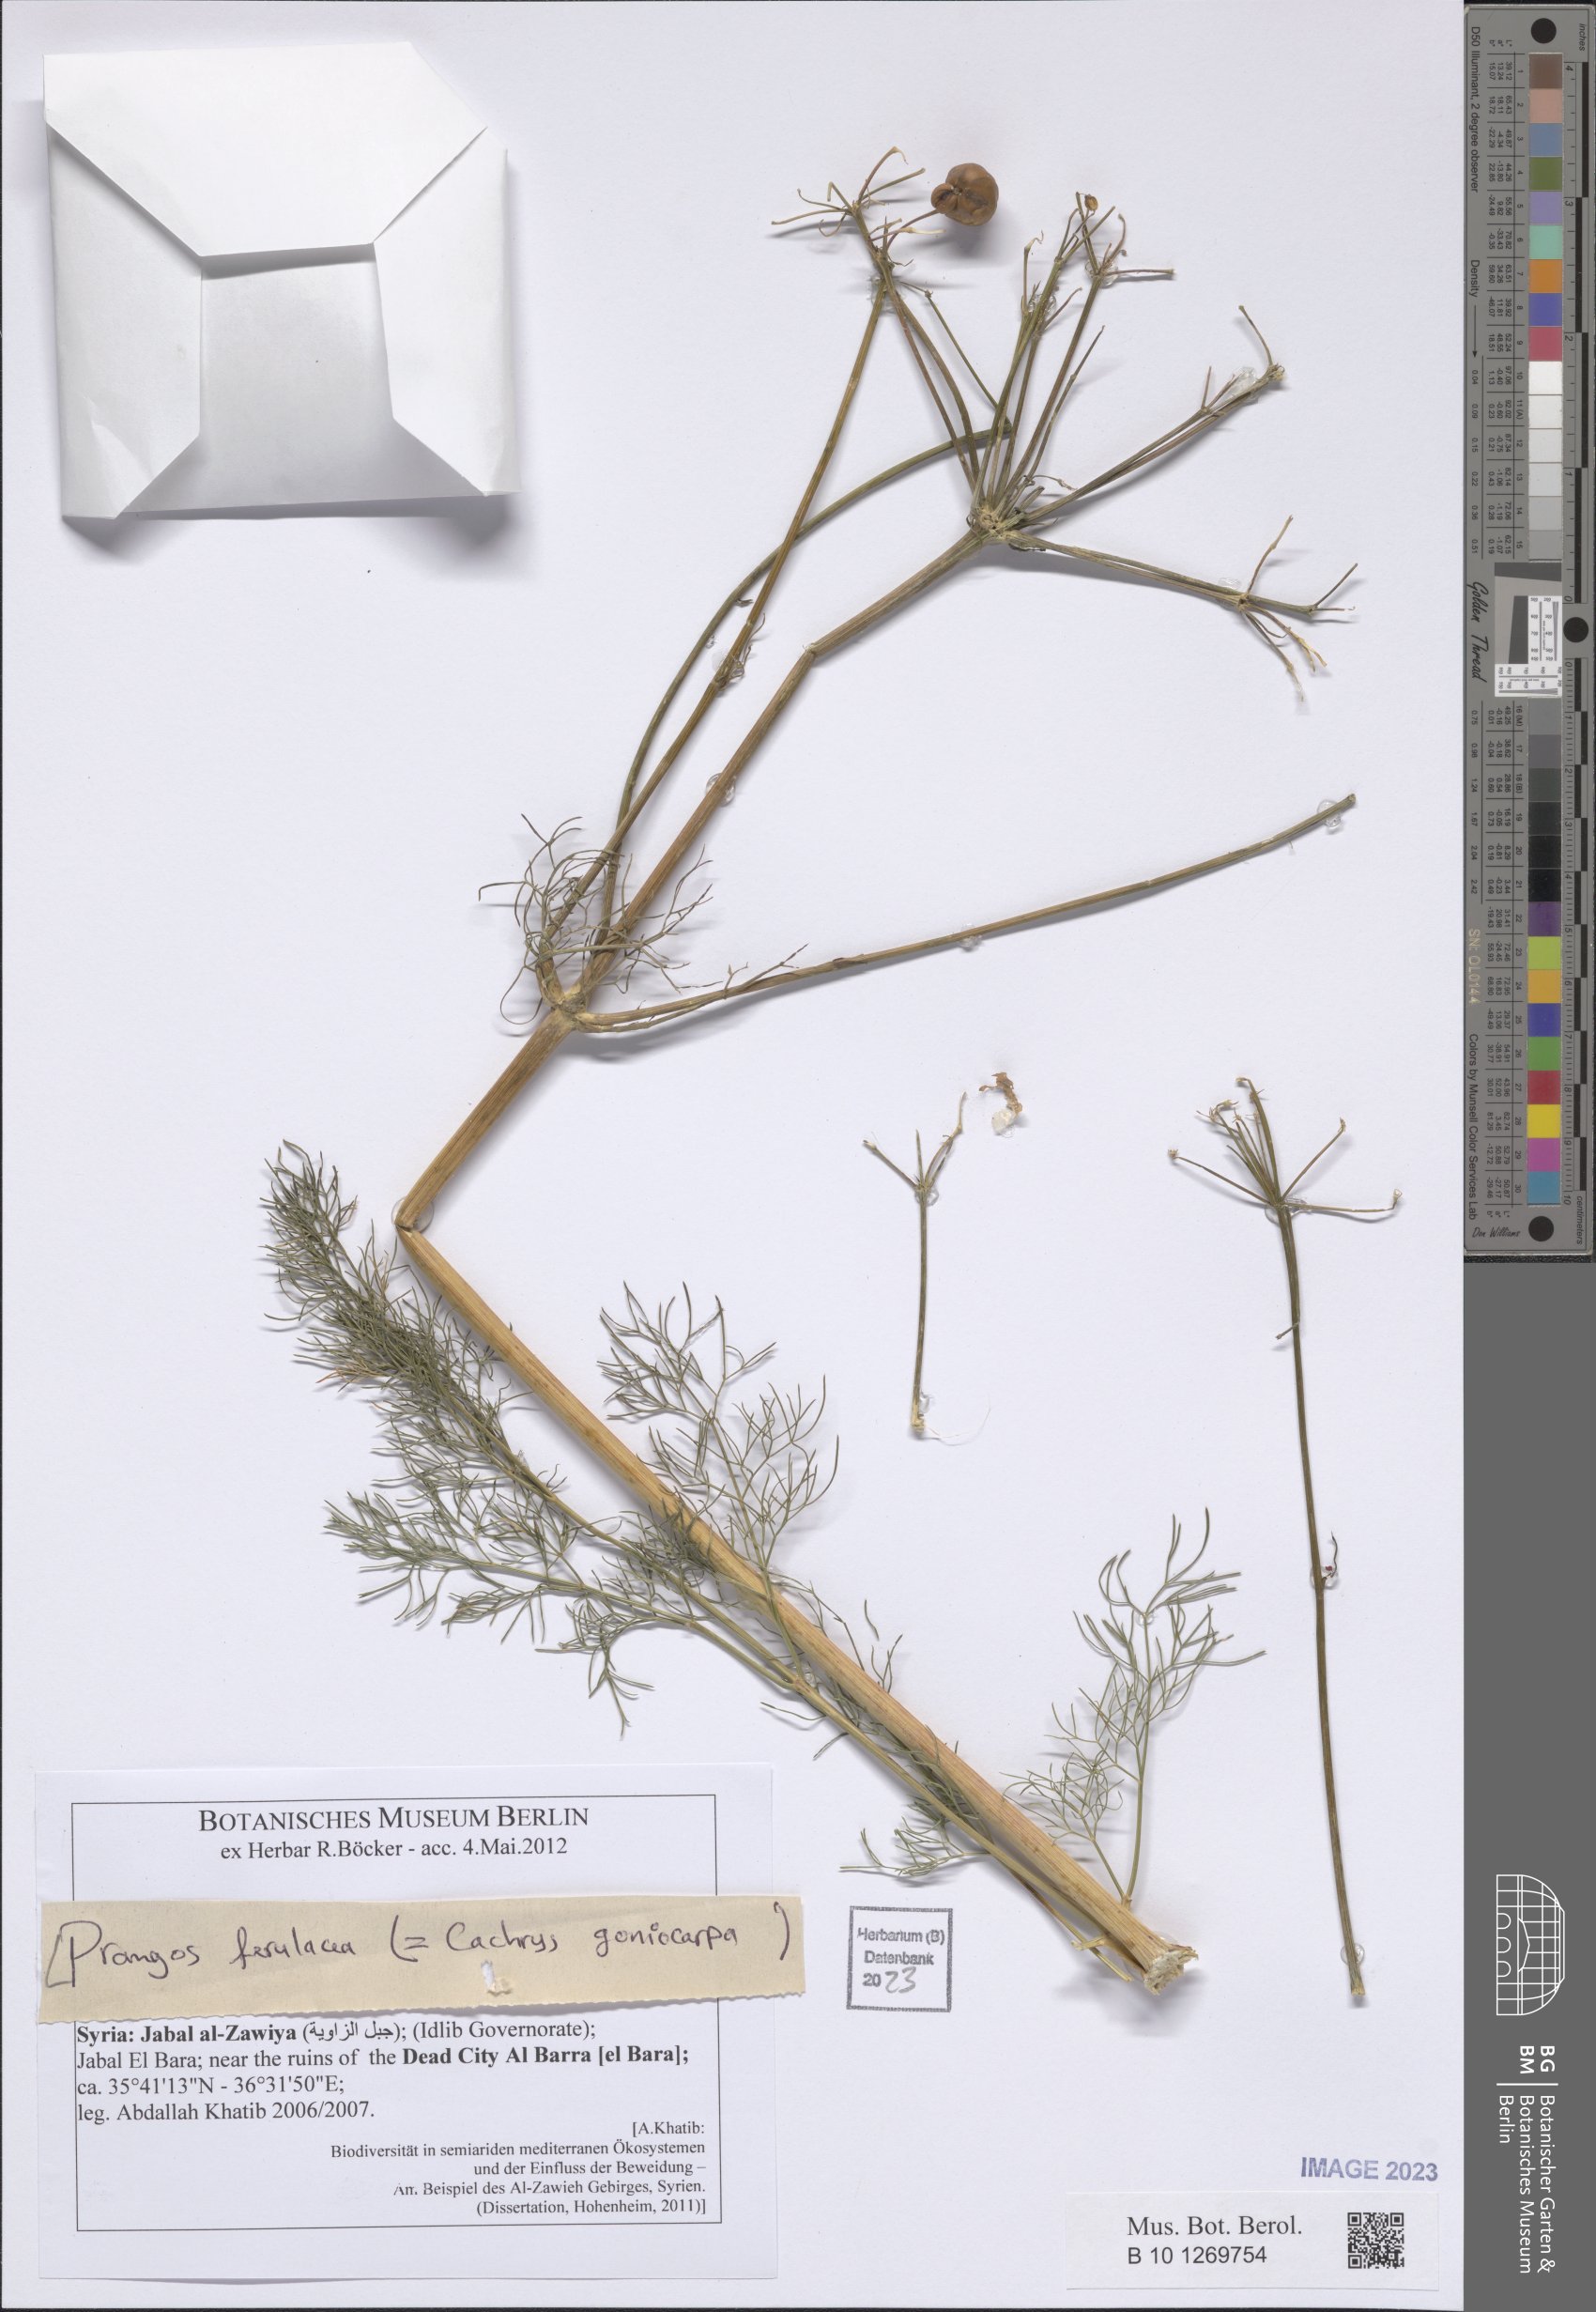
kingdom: Plantae
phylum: Tracheophyta
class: Magnoliopsida
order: Apiales
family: Apiaceae
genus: Prangos
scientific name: Prangos ferulacea
